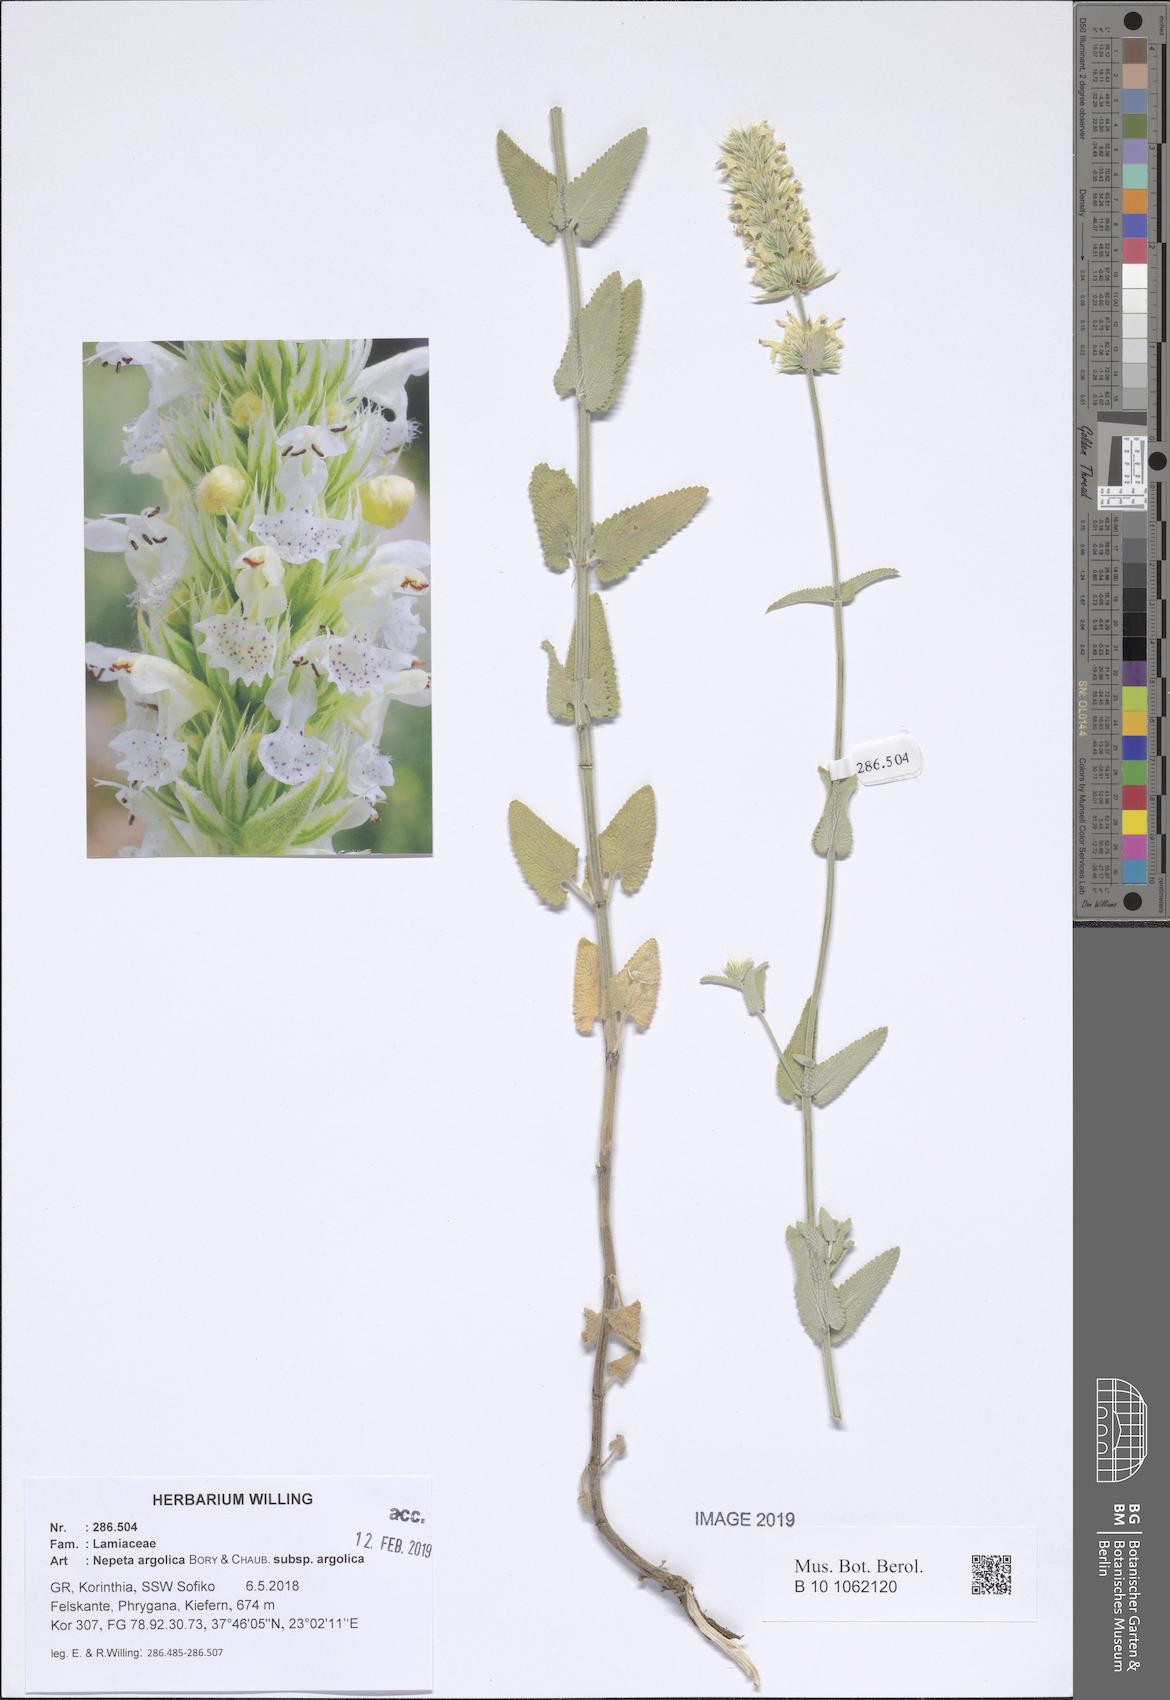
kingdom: Plantae
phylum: Tracheophyta
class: Magnoliopsida
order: Lamiales
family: Lamiaceae
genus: Nepeta
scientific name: Nepeta argolica
